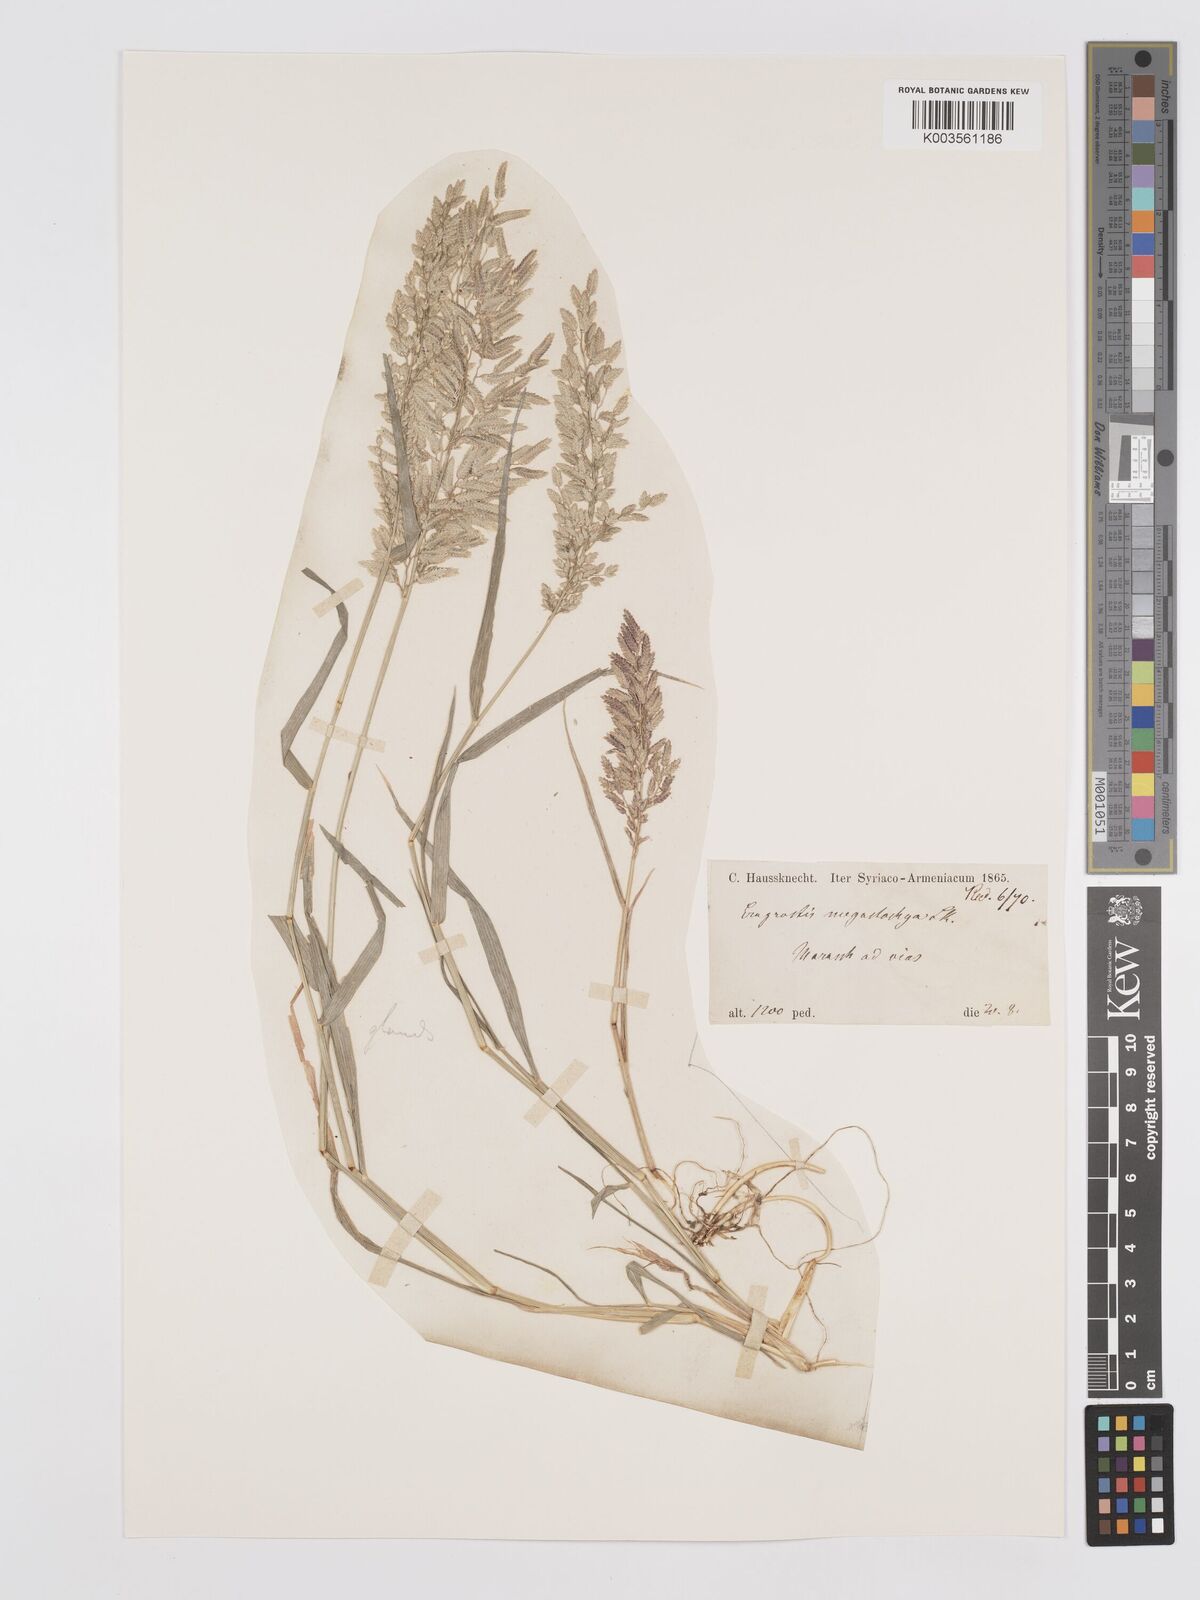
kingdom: Plantae
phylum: Tracheophyta
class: Liliopsida
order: Poales
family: Poaceae
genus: Eragrostis
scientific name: Eragrostis cilianensis
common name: Stinkgrass
